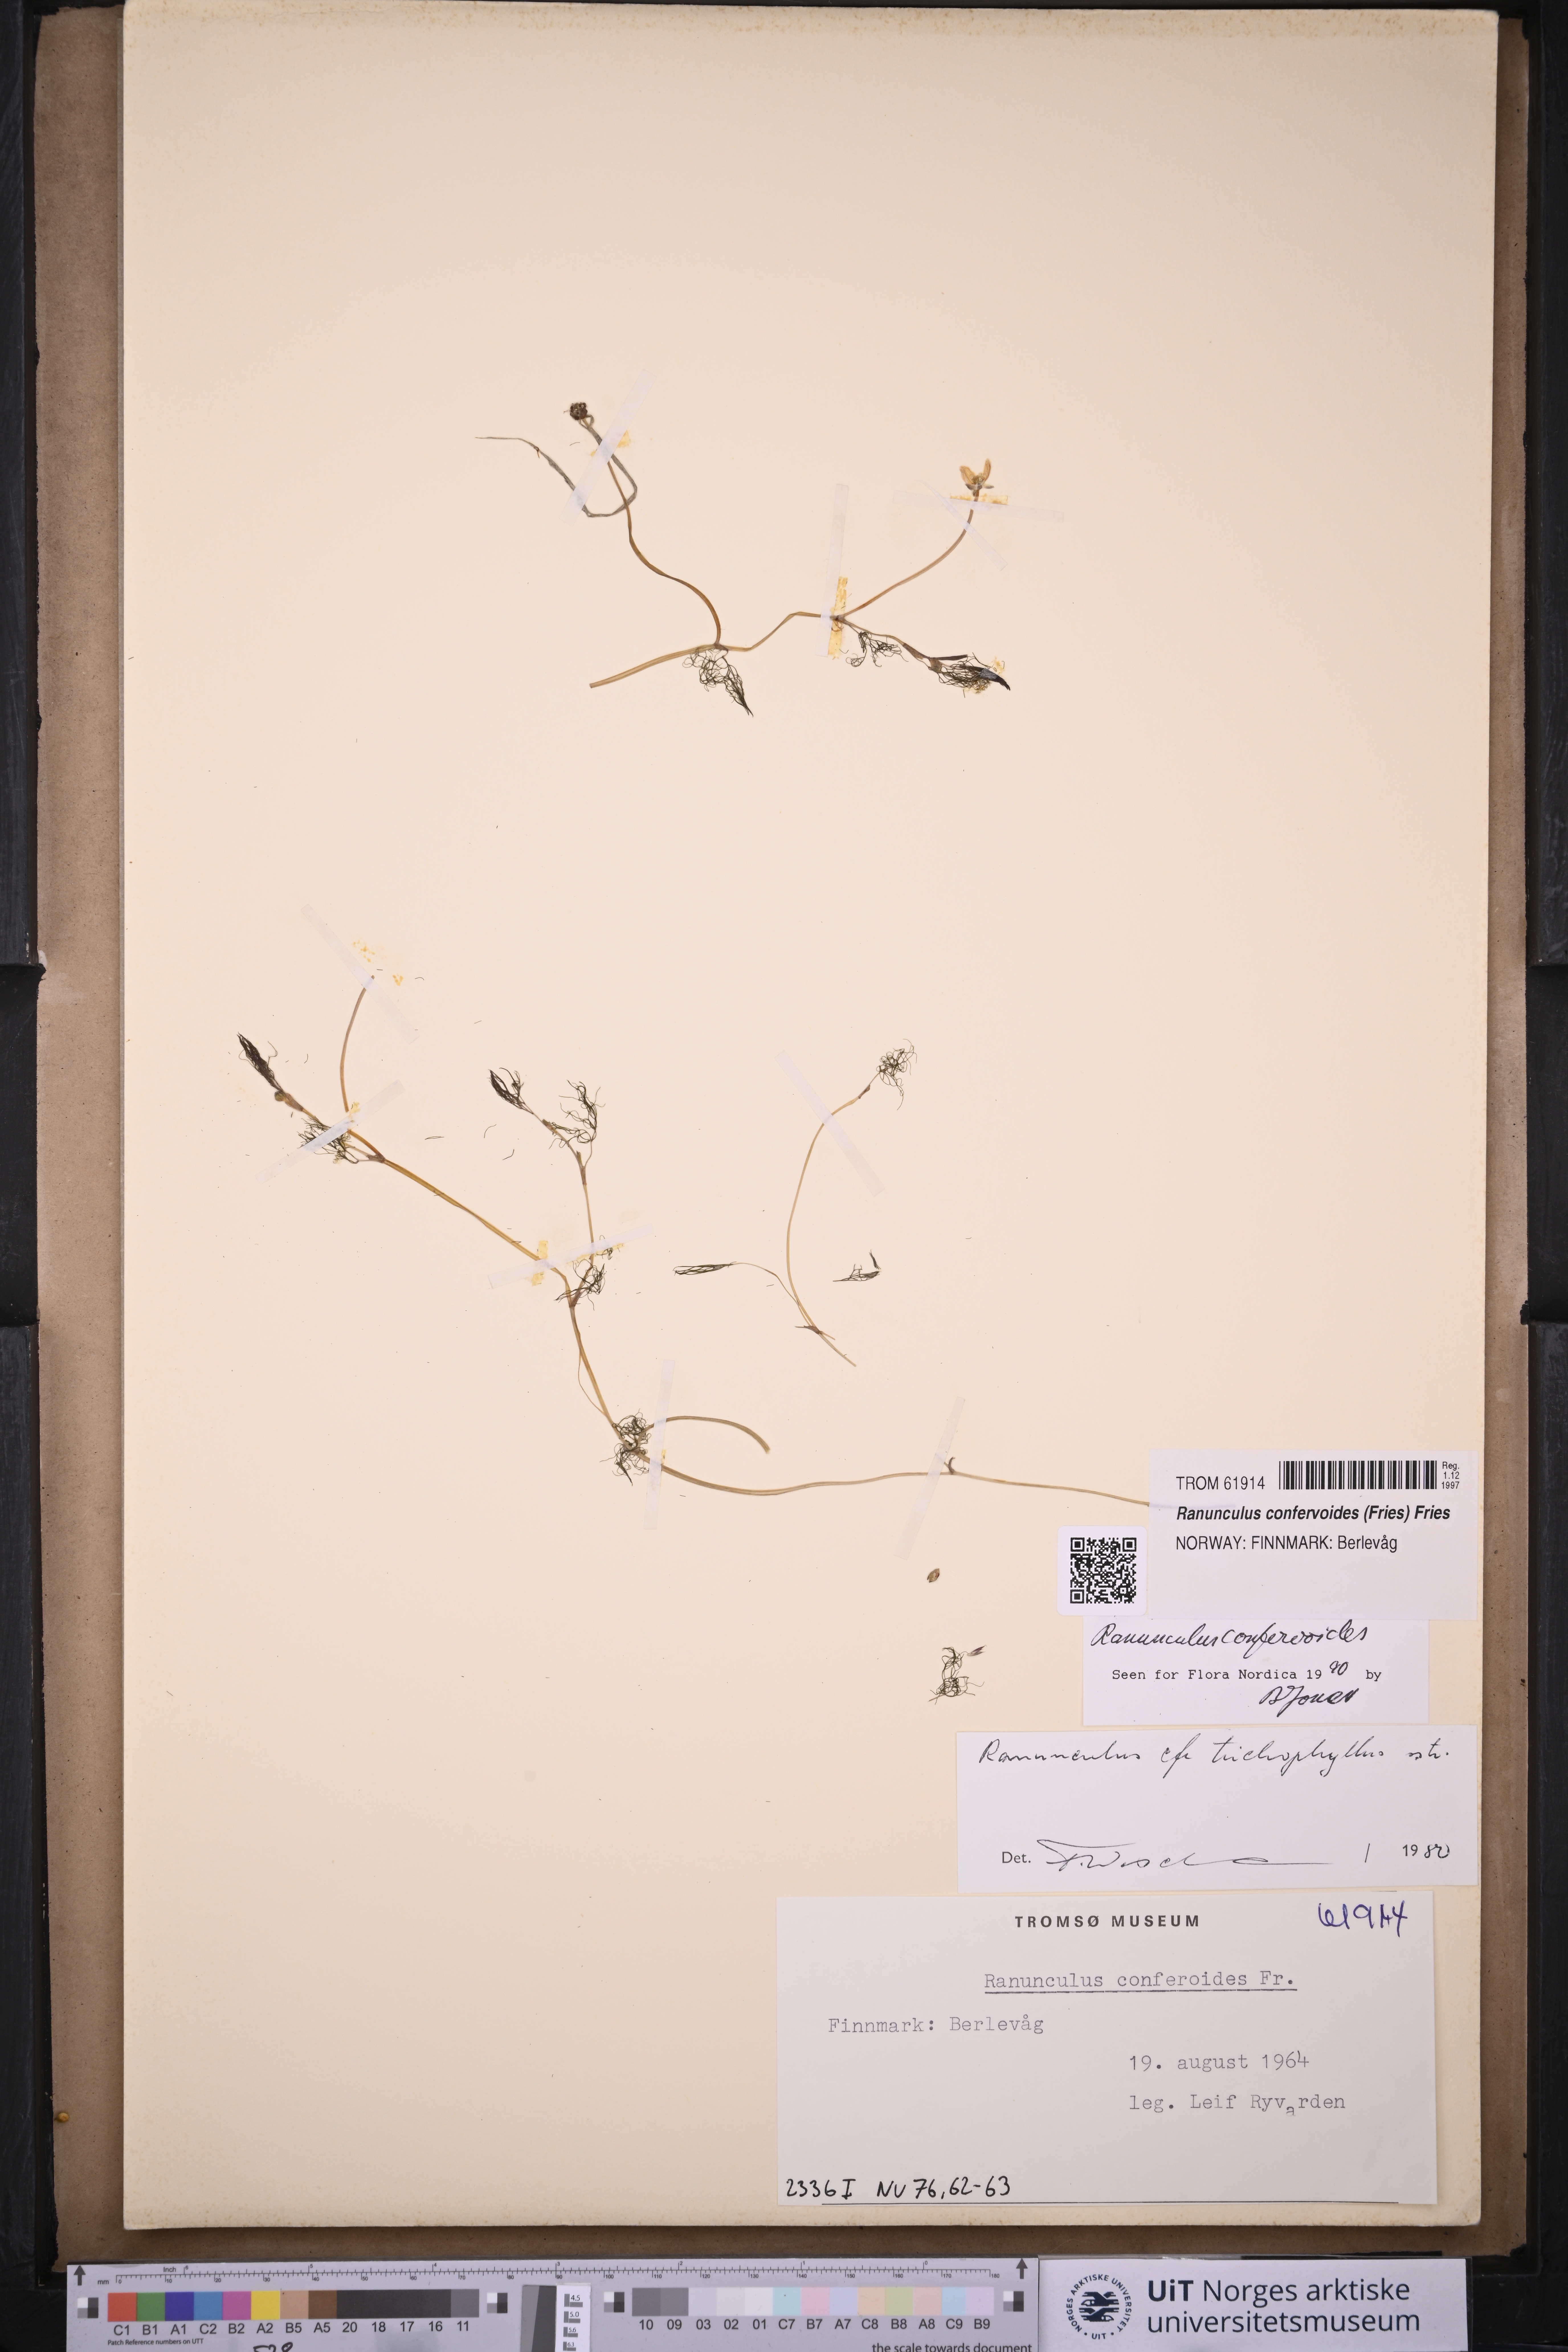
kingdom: Plantae
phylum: Tracheophyta
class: Magnoliopsida
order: Ranunculales
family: Ranunculaceae
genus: Ranunculus
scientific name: Ranunculus confervoides
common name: Delicate buttercup
